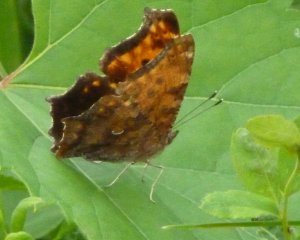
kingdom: Animalia
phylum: Arthropoda
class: Insecta
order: Lepidoptera
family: Nymphalidae
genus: Polygonia
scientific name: Polygonia comma
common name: Eastern Comma
